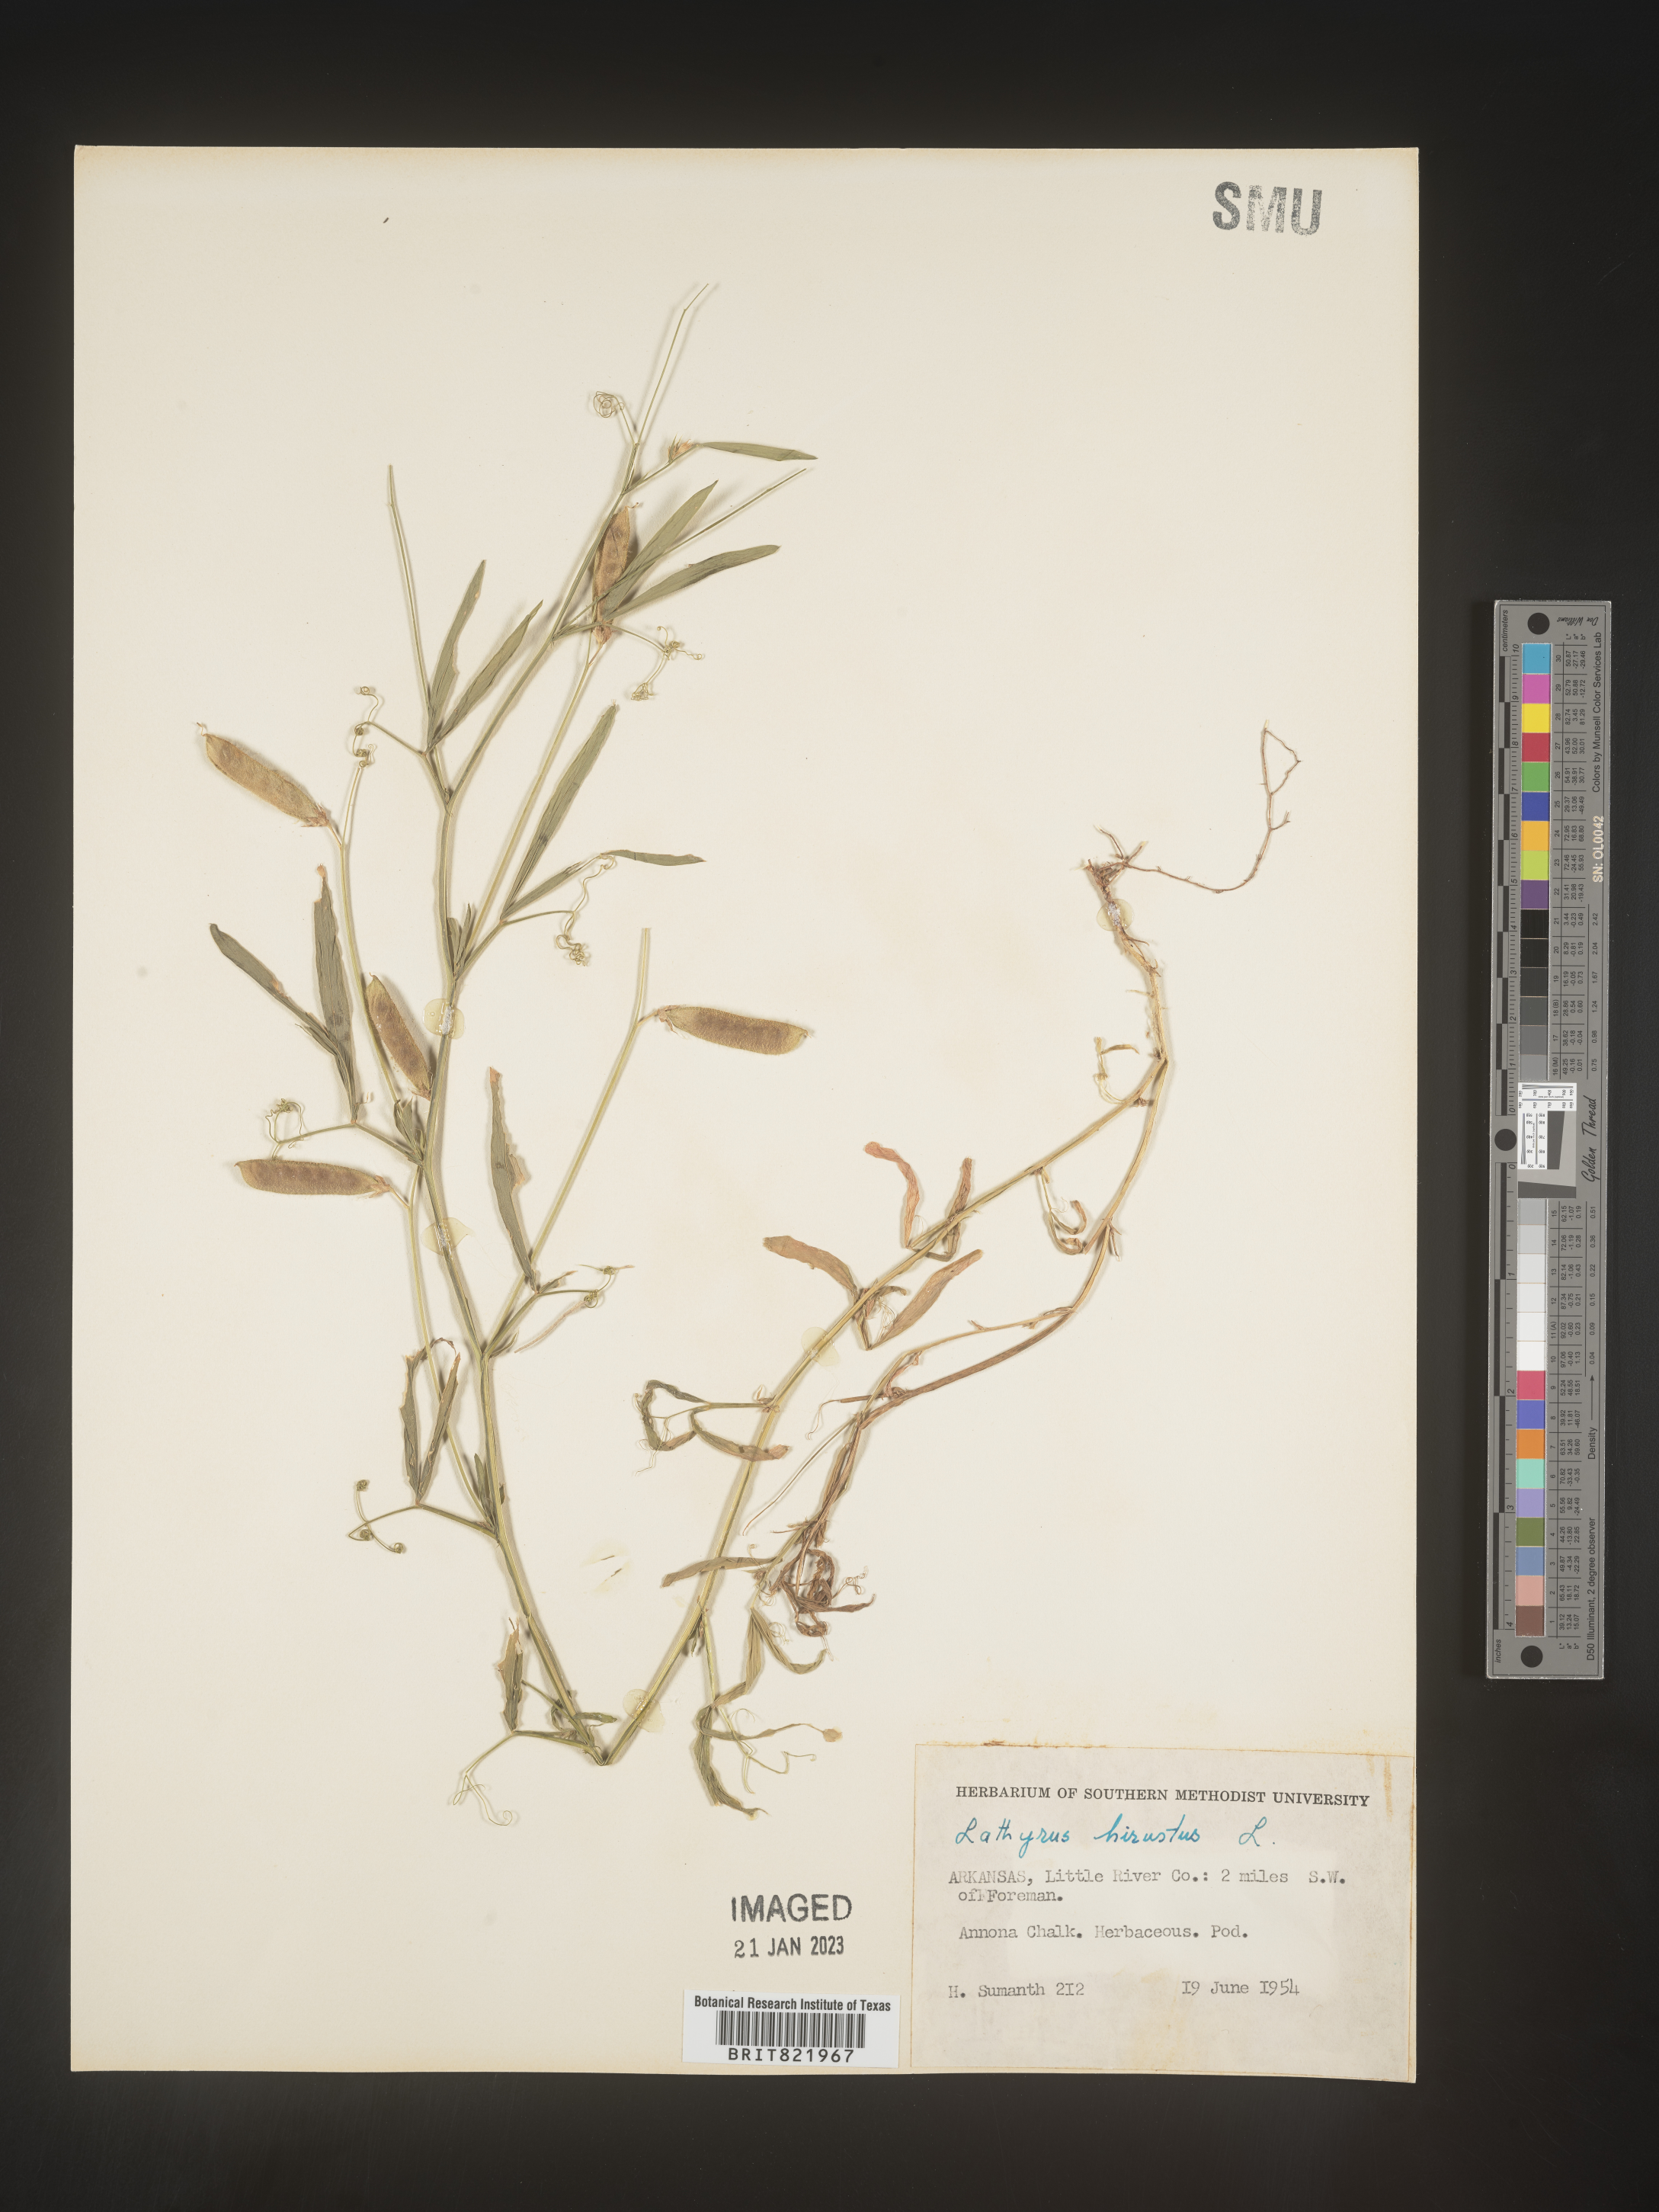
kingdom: Plantae
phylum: Tracheophyta
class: Magnoliopsida
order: Fabales
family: Fabaceae
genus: Lathyrus
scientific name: Lathyrus hirsutus
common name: Hairy vetchling
